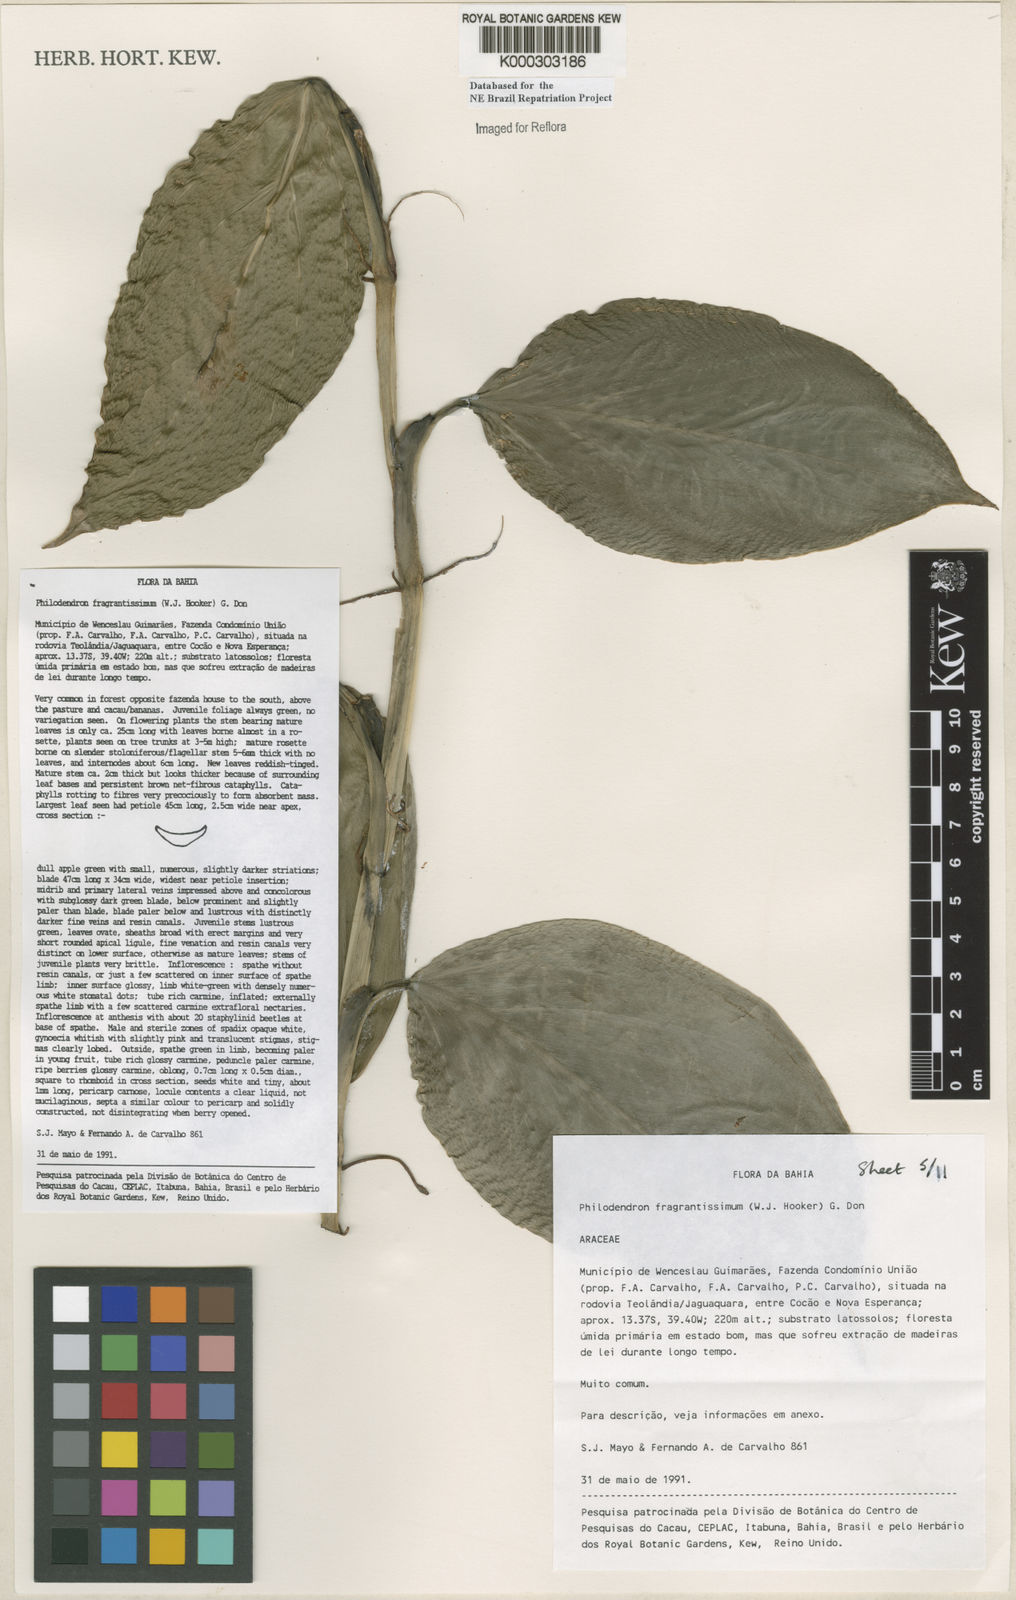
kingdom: Plantae
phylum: Tracheophyta
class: Liliopsida
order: Alismatales
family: Araceae
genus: Philodendron
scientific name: Philodendron fragrantissimum
